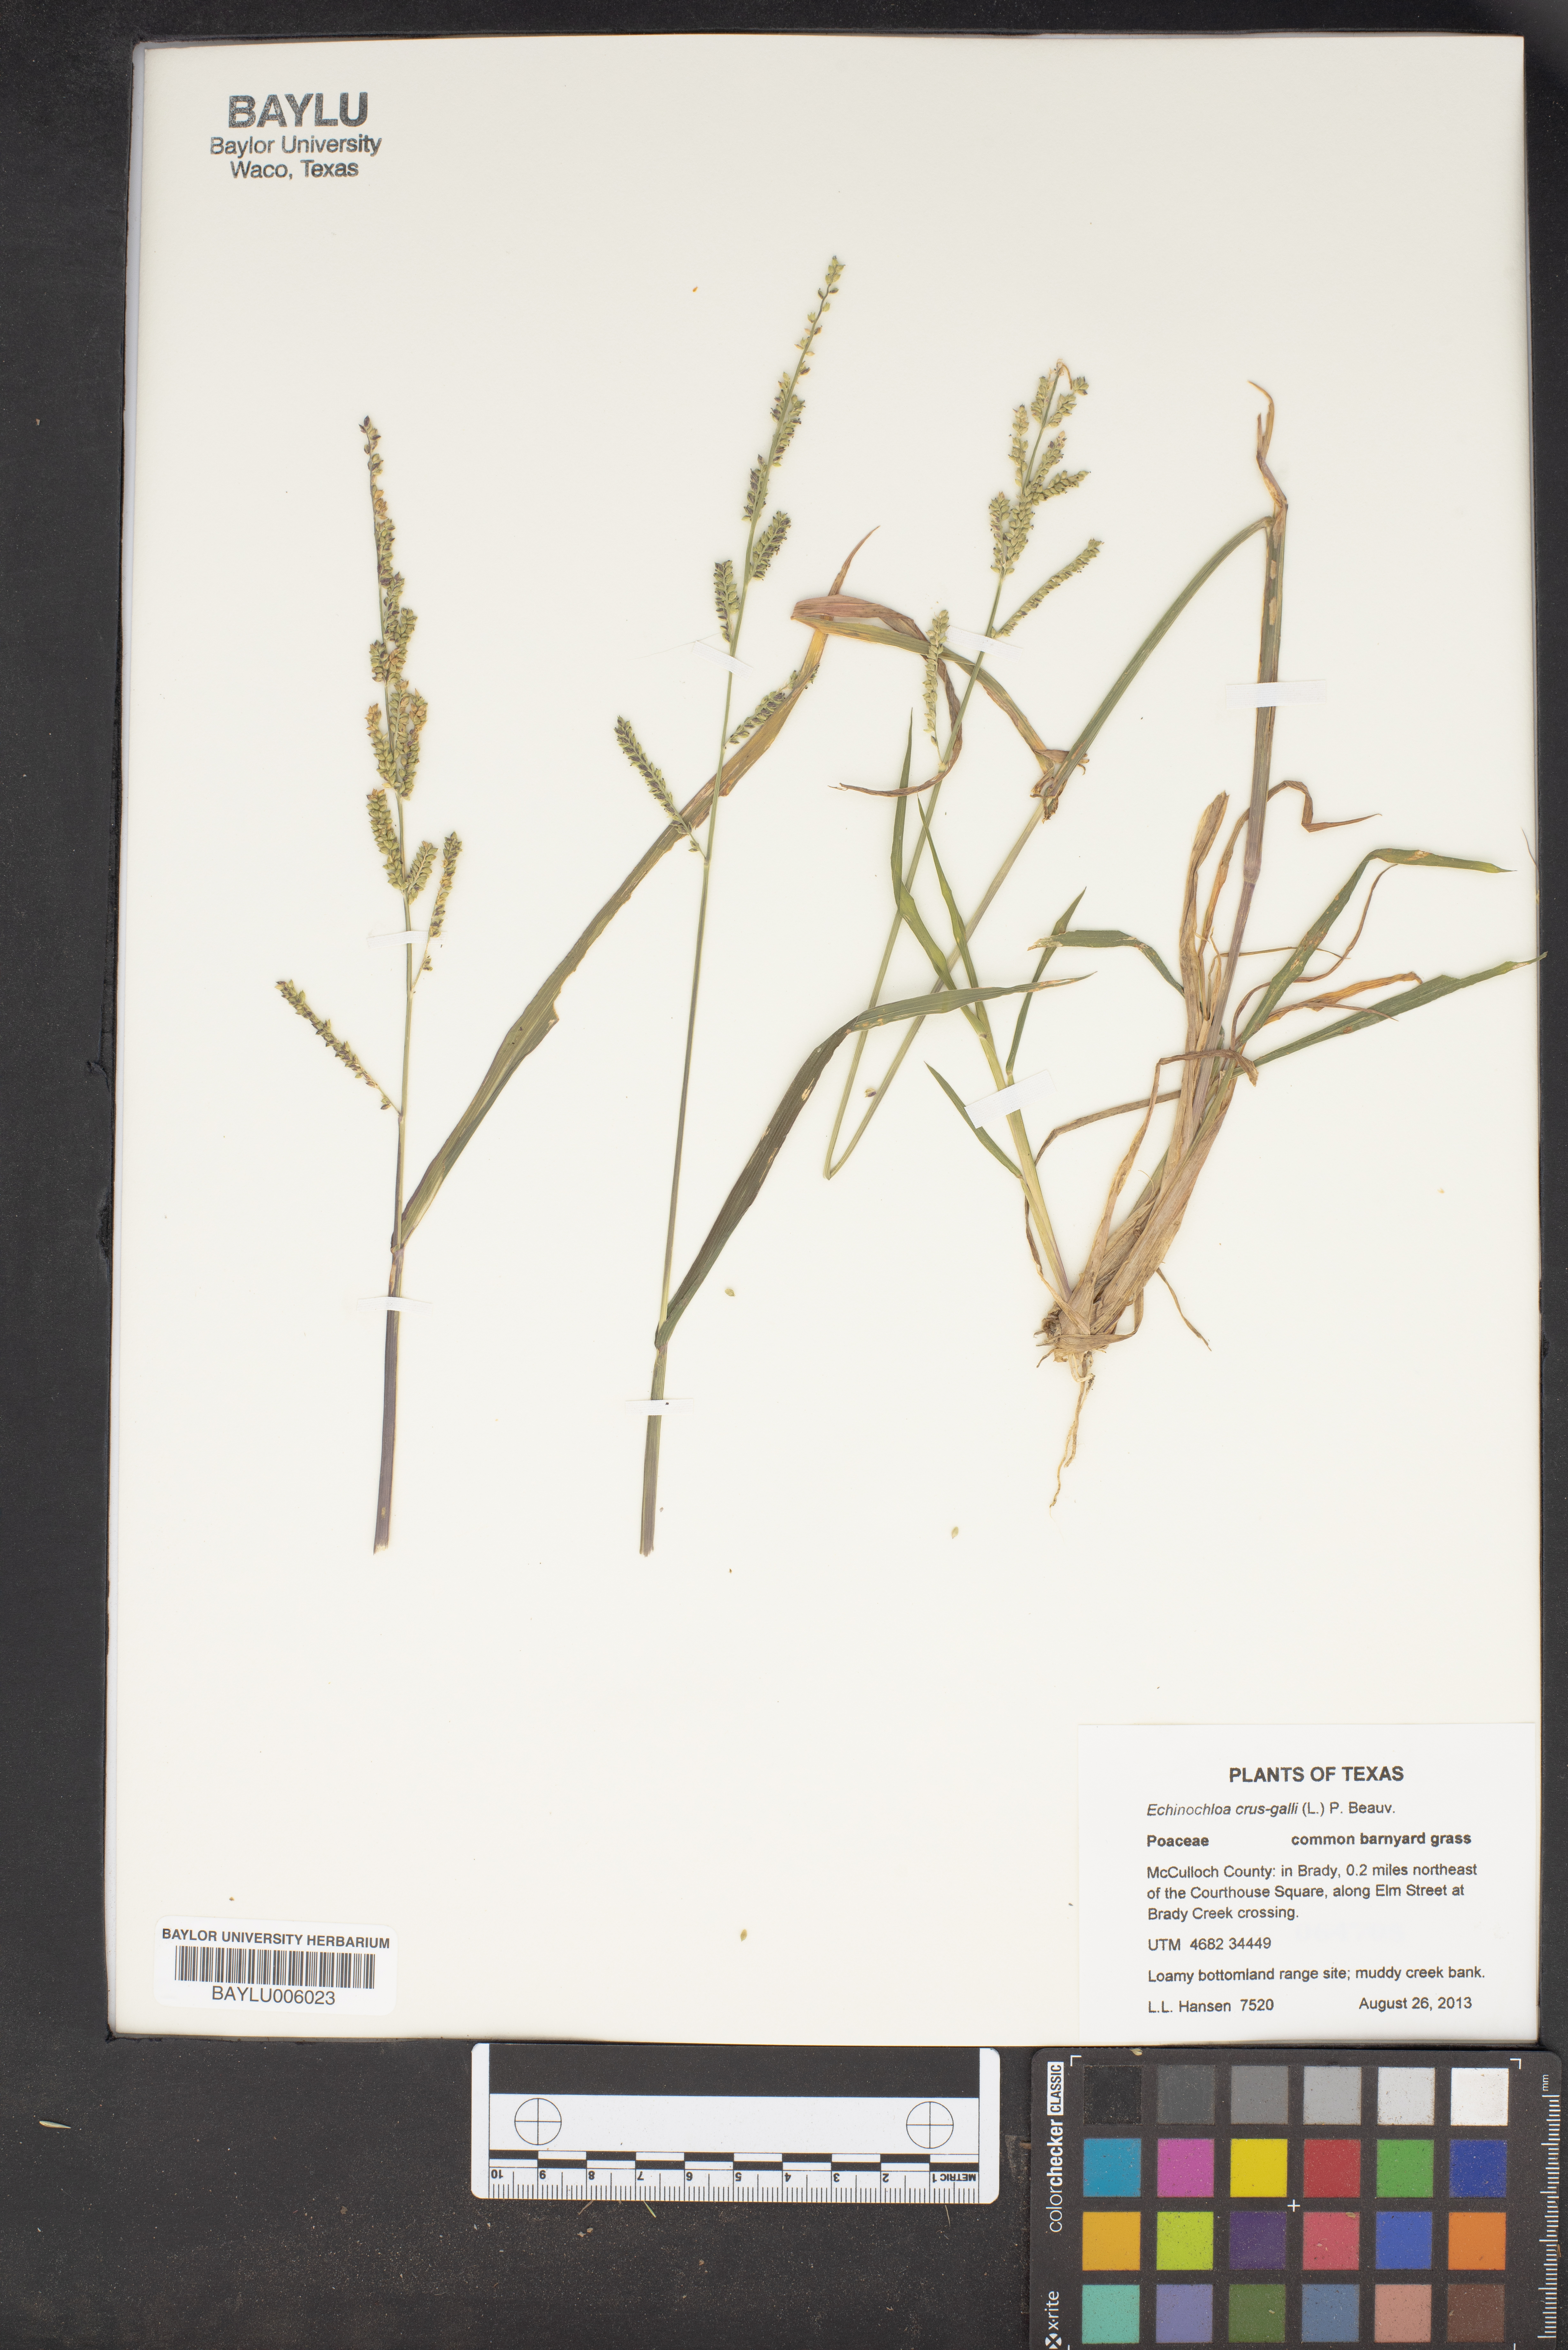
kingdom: Plantae
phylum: Tracheophyta
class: Liliopsida
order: Poales
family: Poaceae
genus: Echinochloa
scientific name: Echinochloa crus-galli
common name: Cockspur
